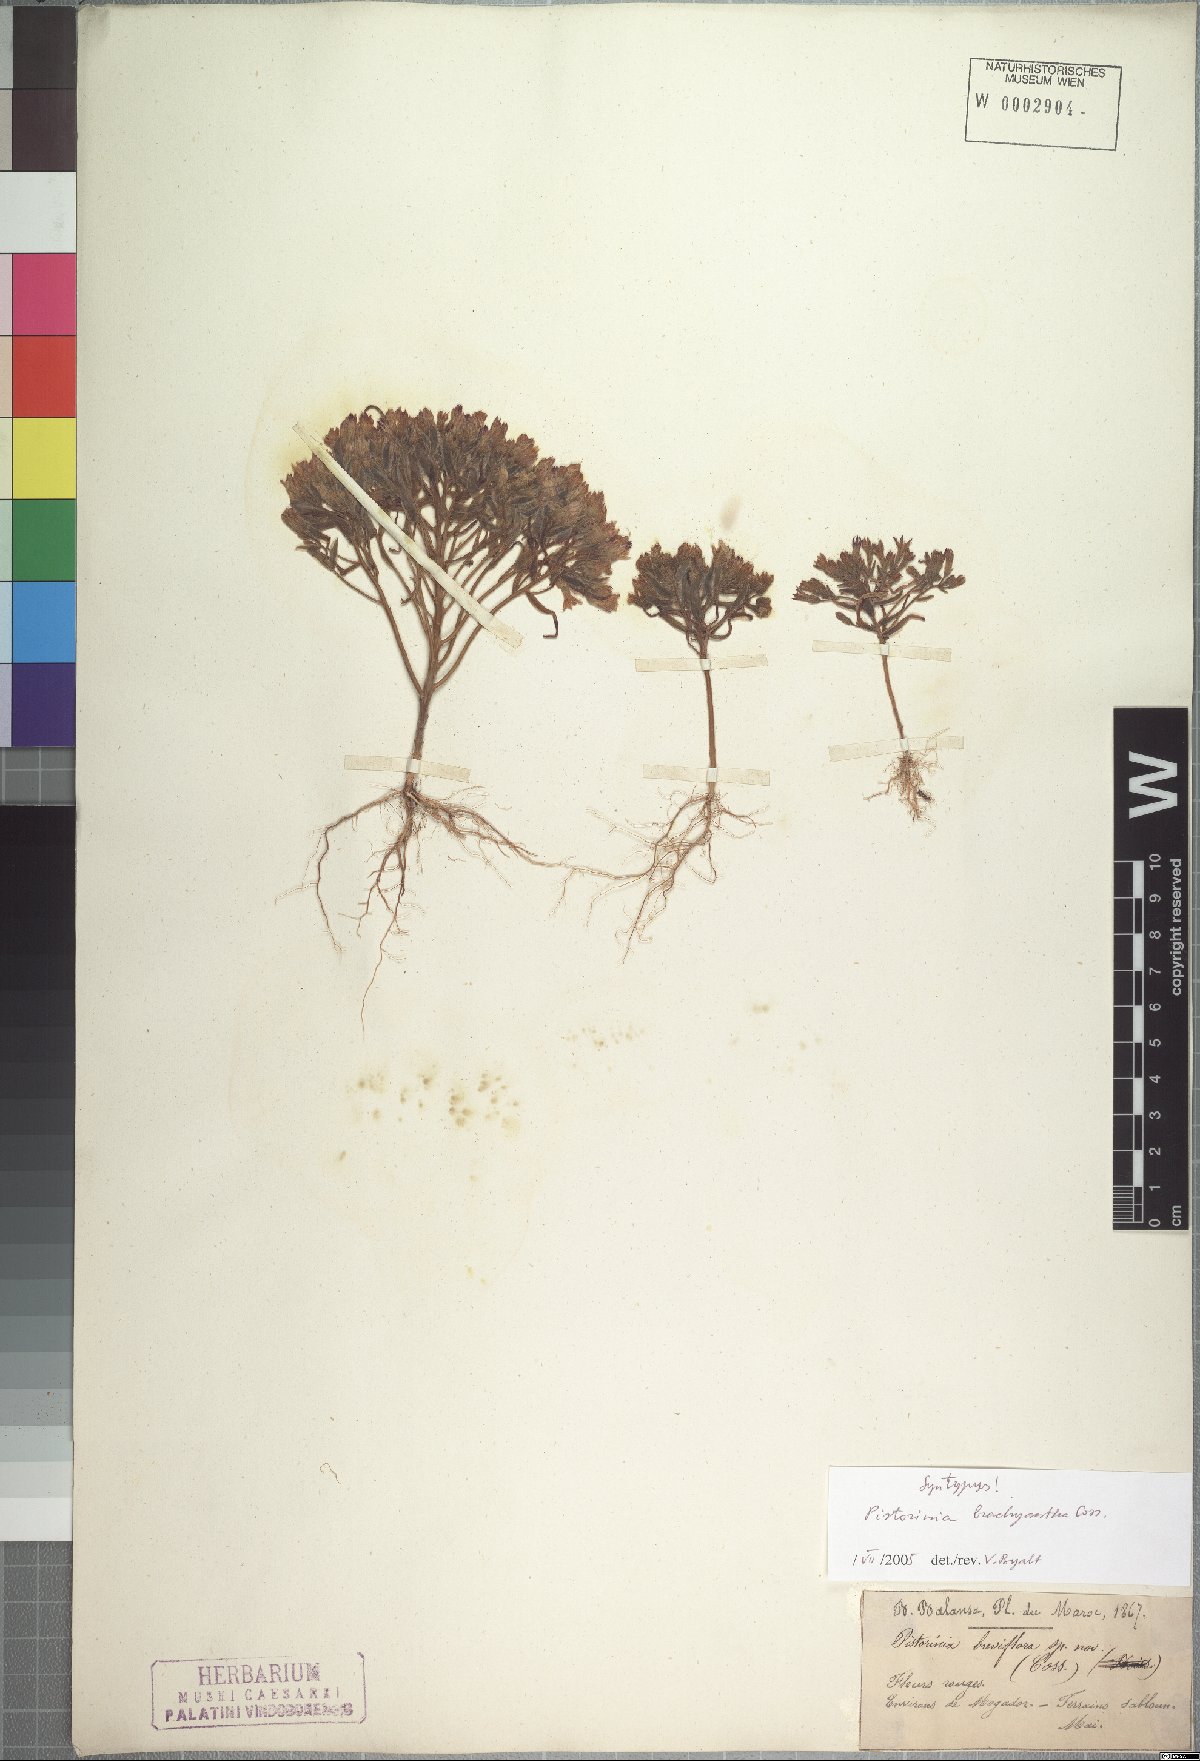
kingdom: Plantae
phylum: Tracheophyta
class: Magnoliopsida
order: Saxifragales
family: Crassulaceae
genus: Pistorinia
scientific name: Pistorinia brachyantha
